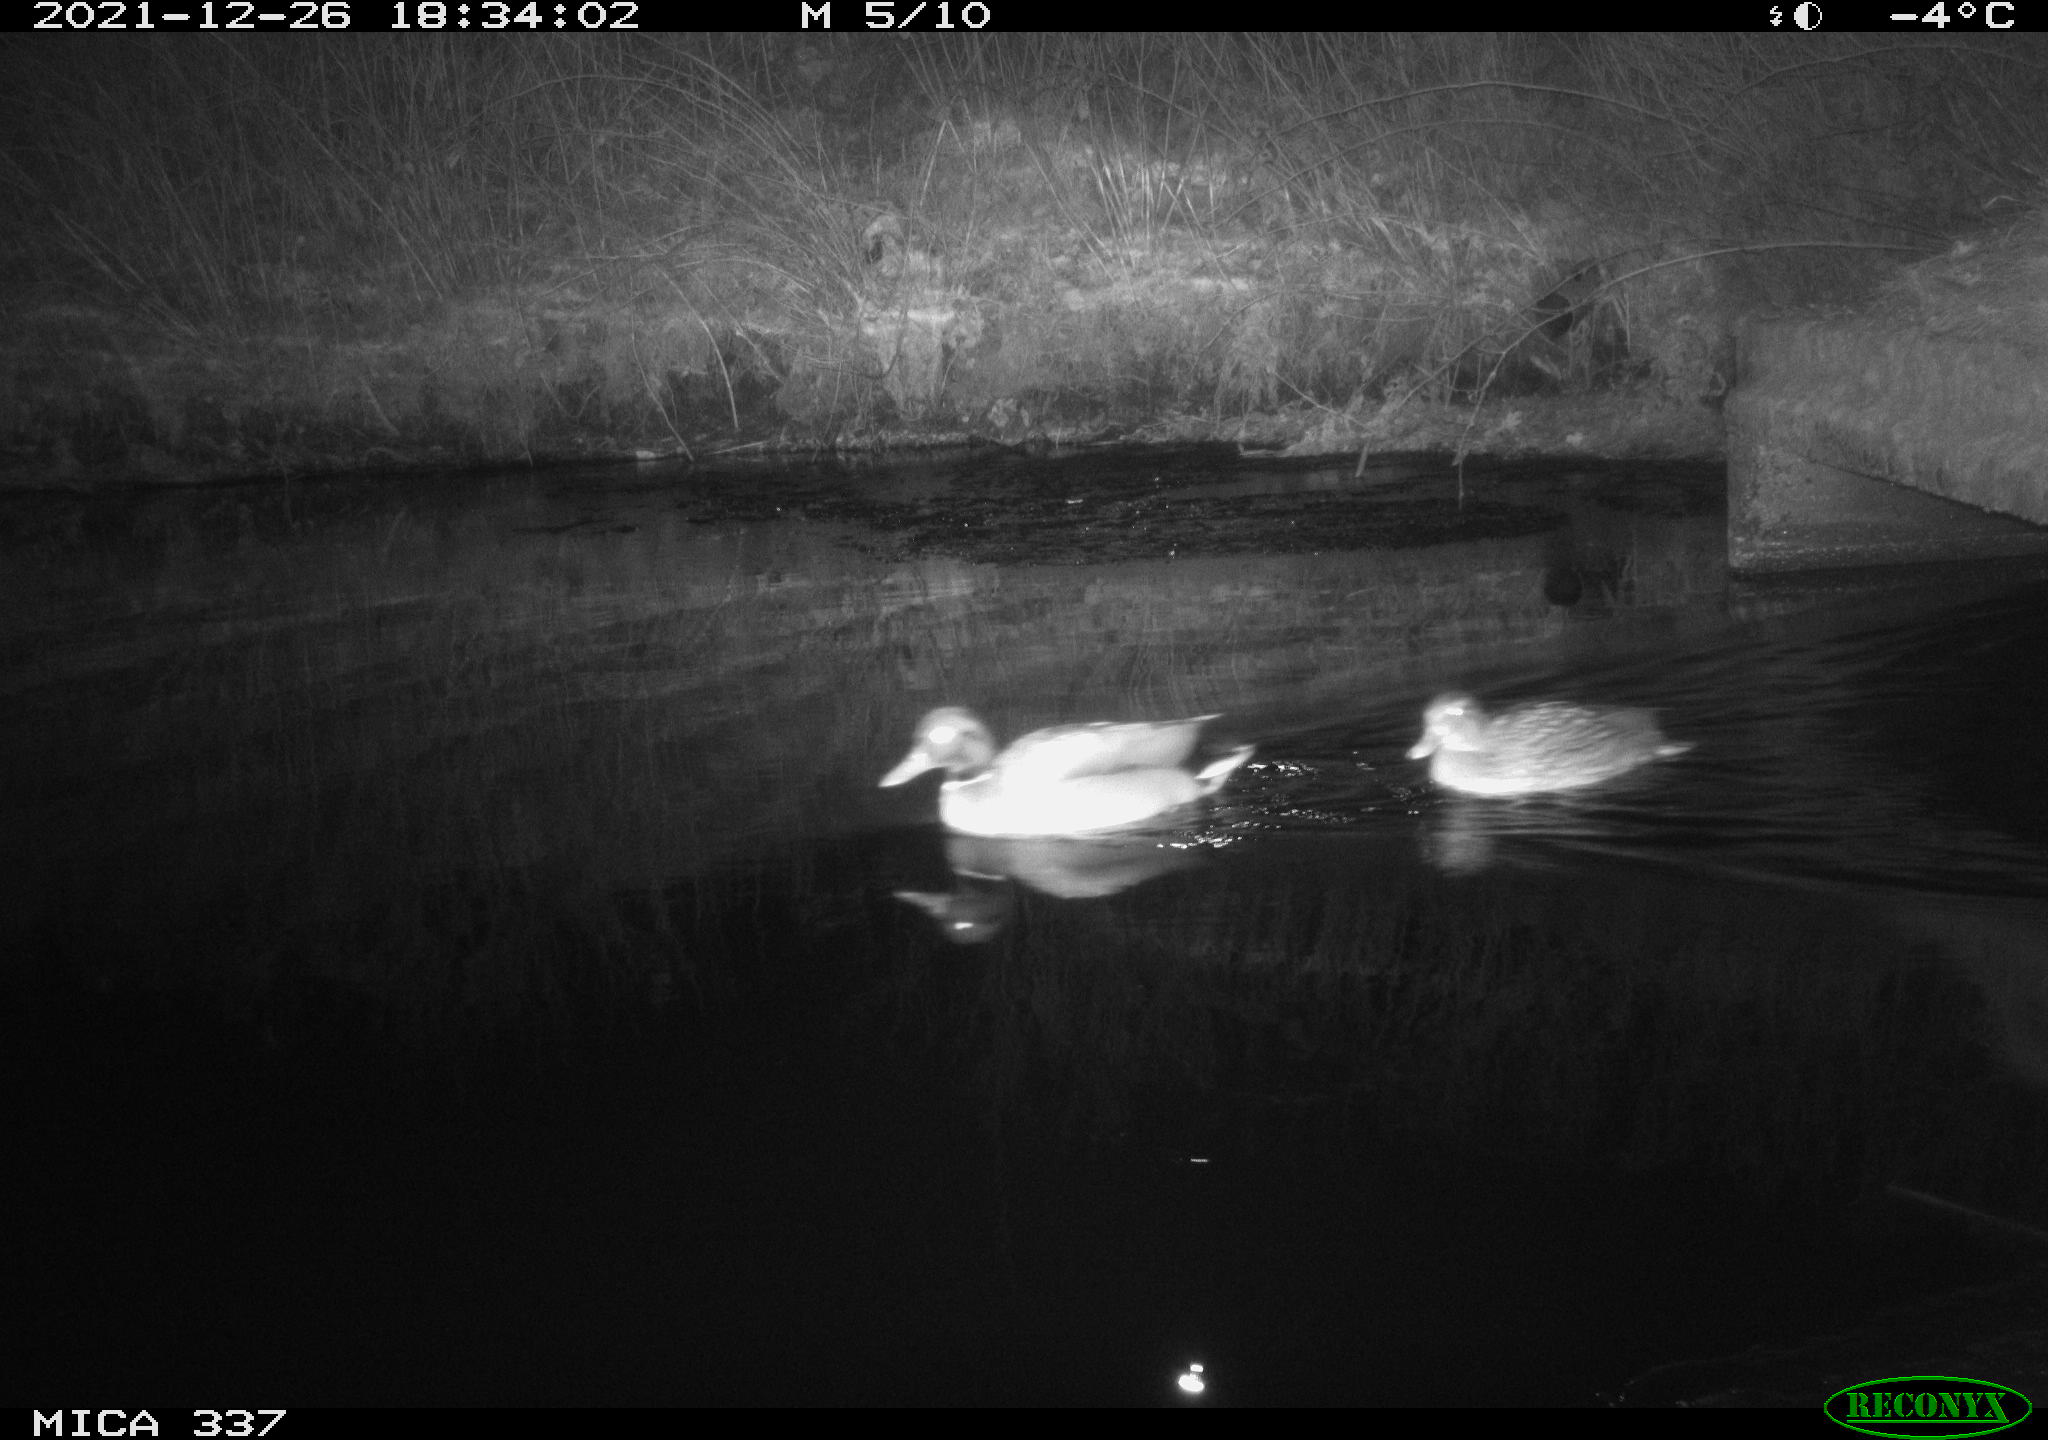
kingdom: Animalia
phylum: Chordata
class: Aves
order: Anseriformes
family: Anatidae
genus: Anas
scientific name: Anas platyrhynchos
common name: Mallard
